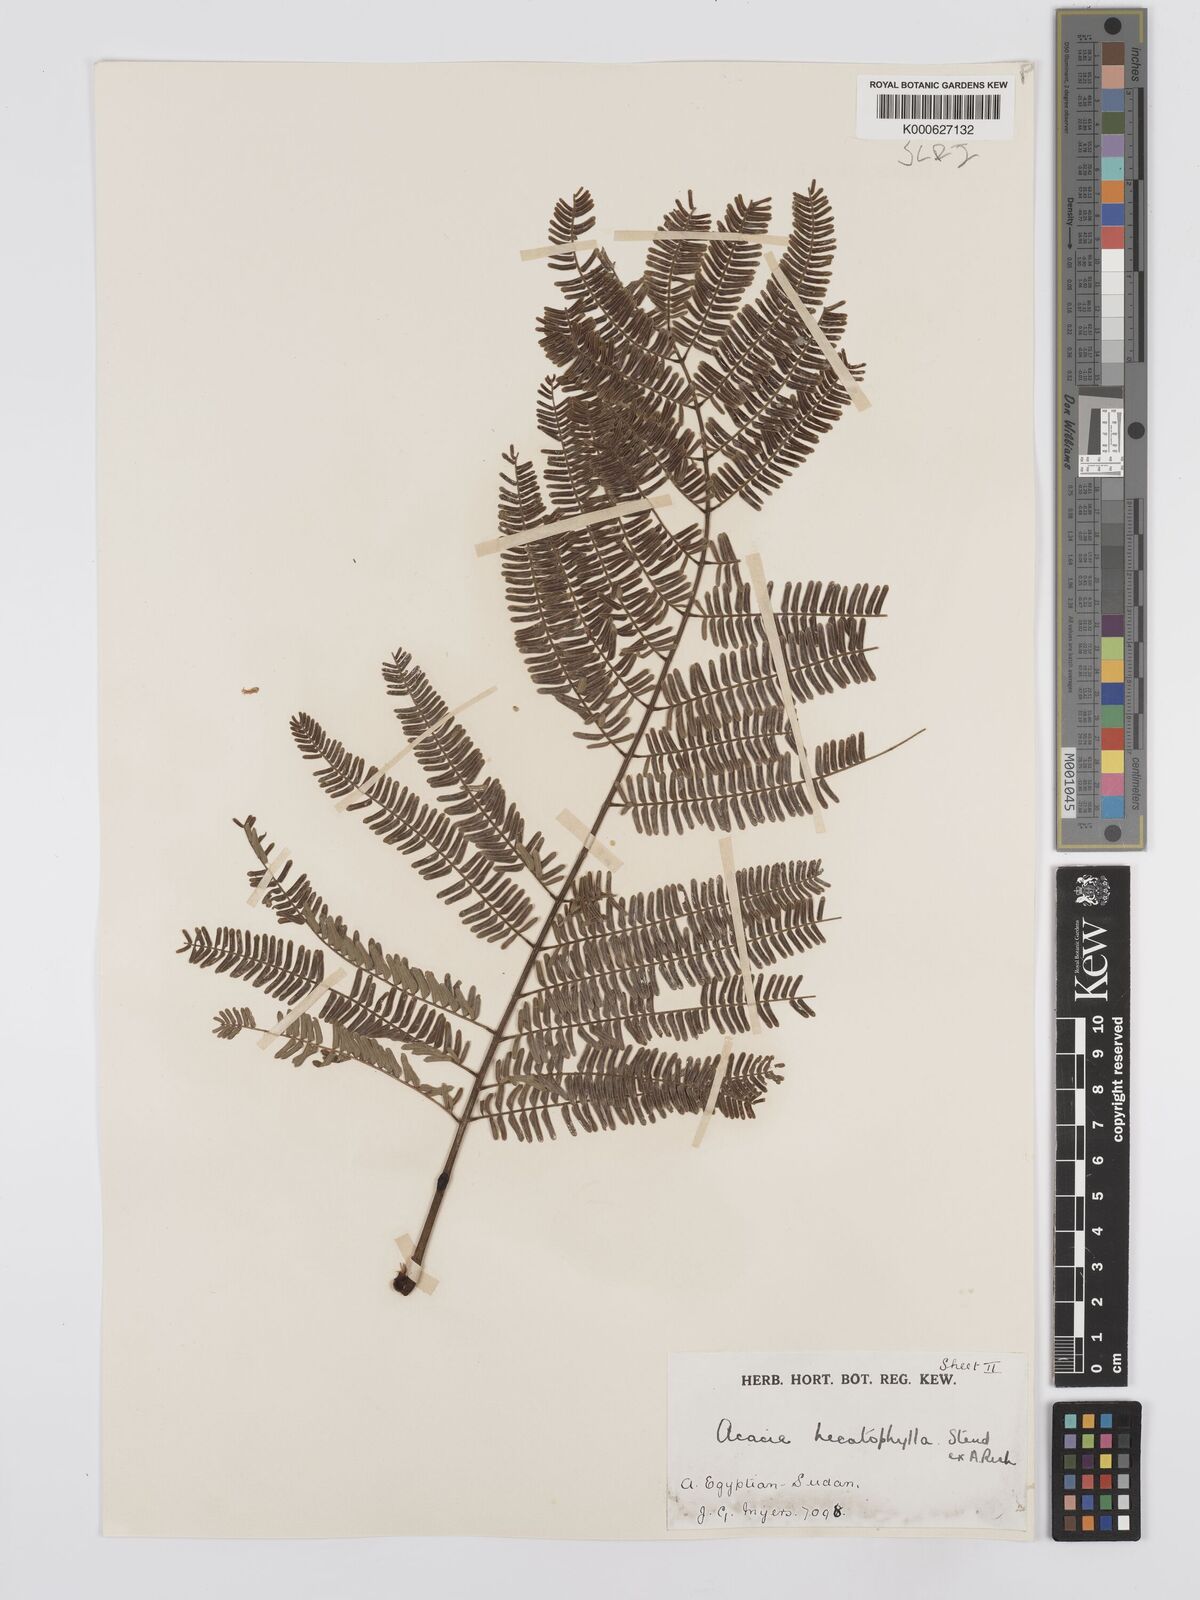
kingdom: Plantae
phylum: Tracheophyta
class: Magnoliopsida
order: Fabales
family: Fabaceae
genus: Senegalia
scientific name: Senegalia hecatophylla
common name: Long pod
